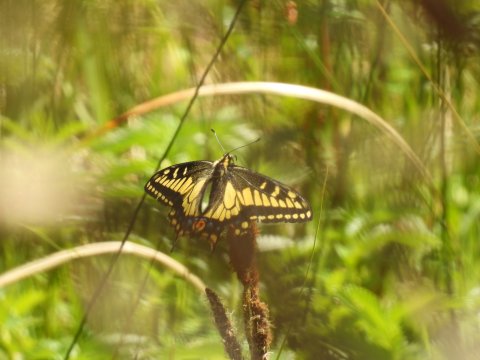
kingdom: Animalia
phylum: Arthropoda
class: Insecta
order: Lepidoptera
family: Papilionidae
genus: Papilio
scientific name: Papilio zelicaon
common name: Anise Swallowtail
